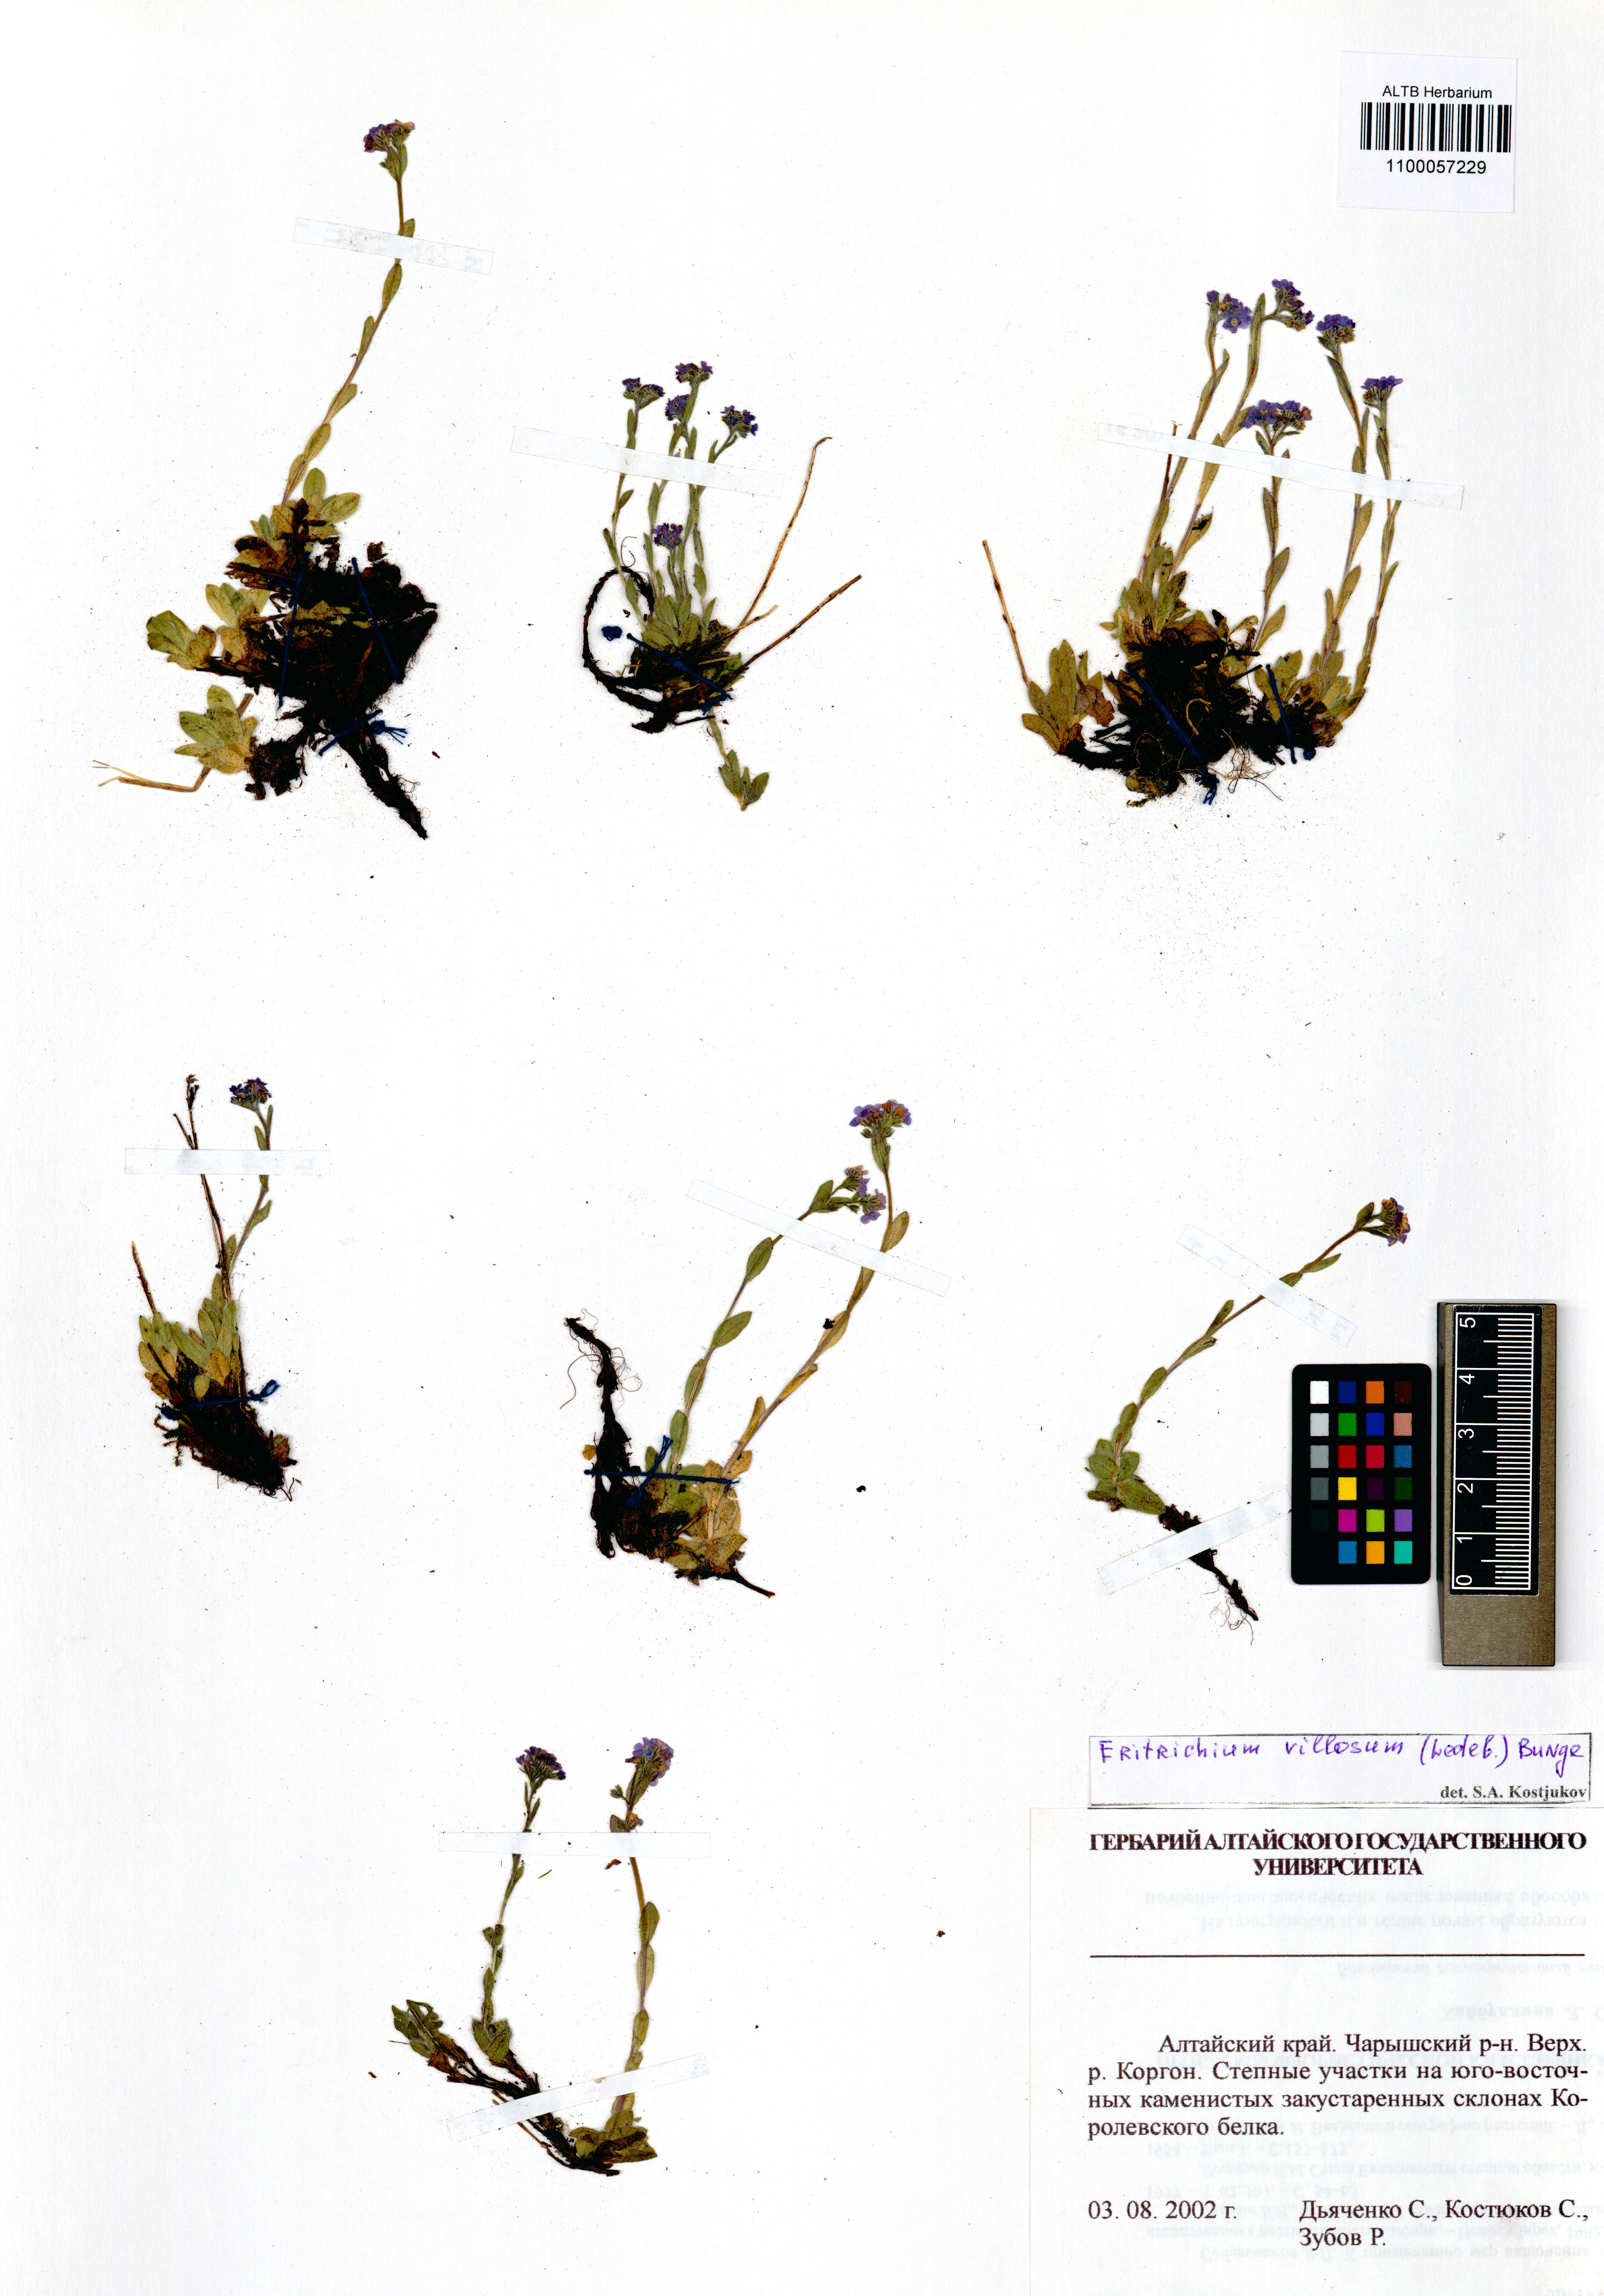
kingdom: Plantae
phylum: Tracheophyta
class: Magnoliopsida
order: Boraginales
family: Boraginaceae
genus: Eritrichium
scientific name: Eritrichium villosum
